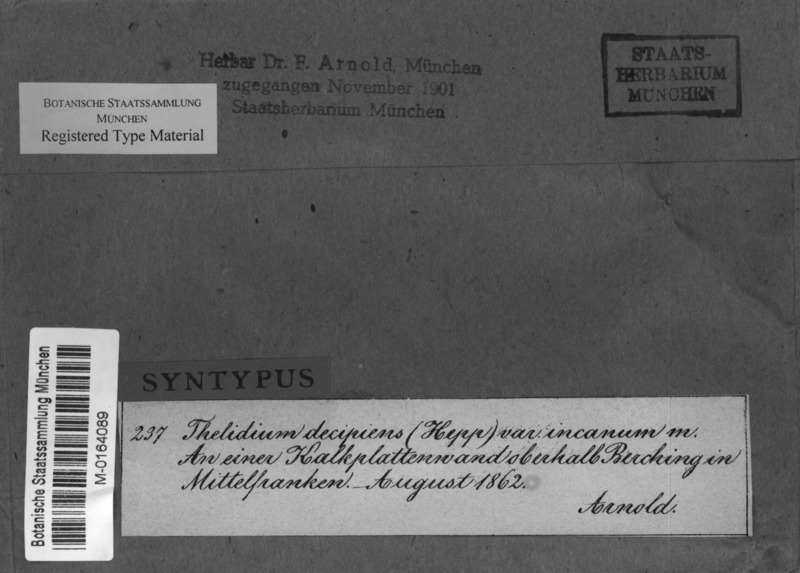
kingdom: Fungi
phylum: Ascomycota
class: Eurotiomycetes
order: Verrucariales
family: Verrucariaceae
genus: Thelidium
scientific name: Thelidium decipiens
